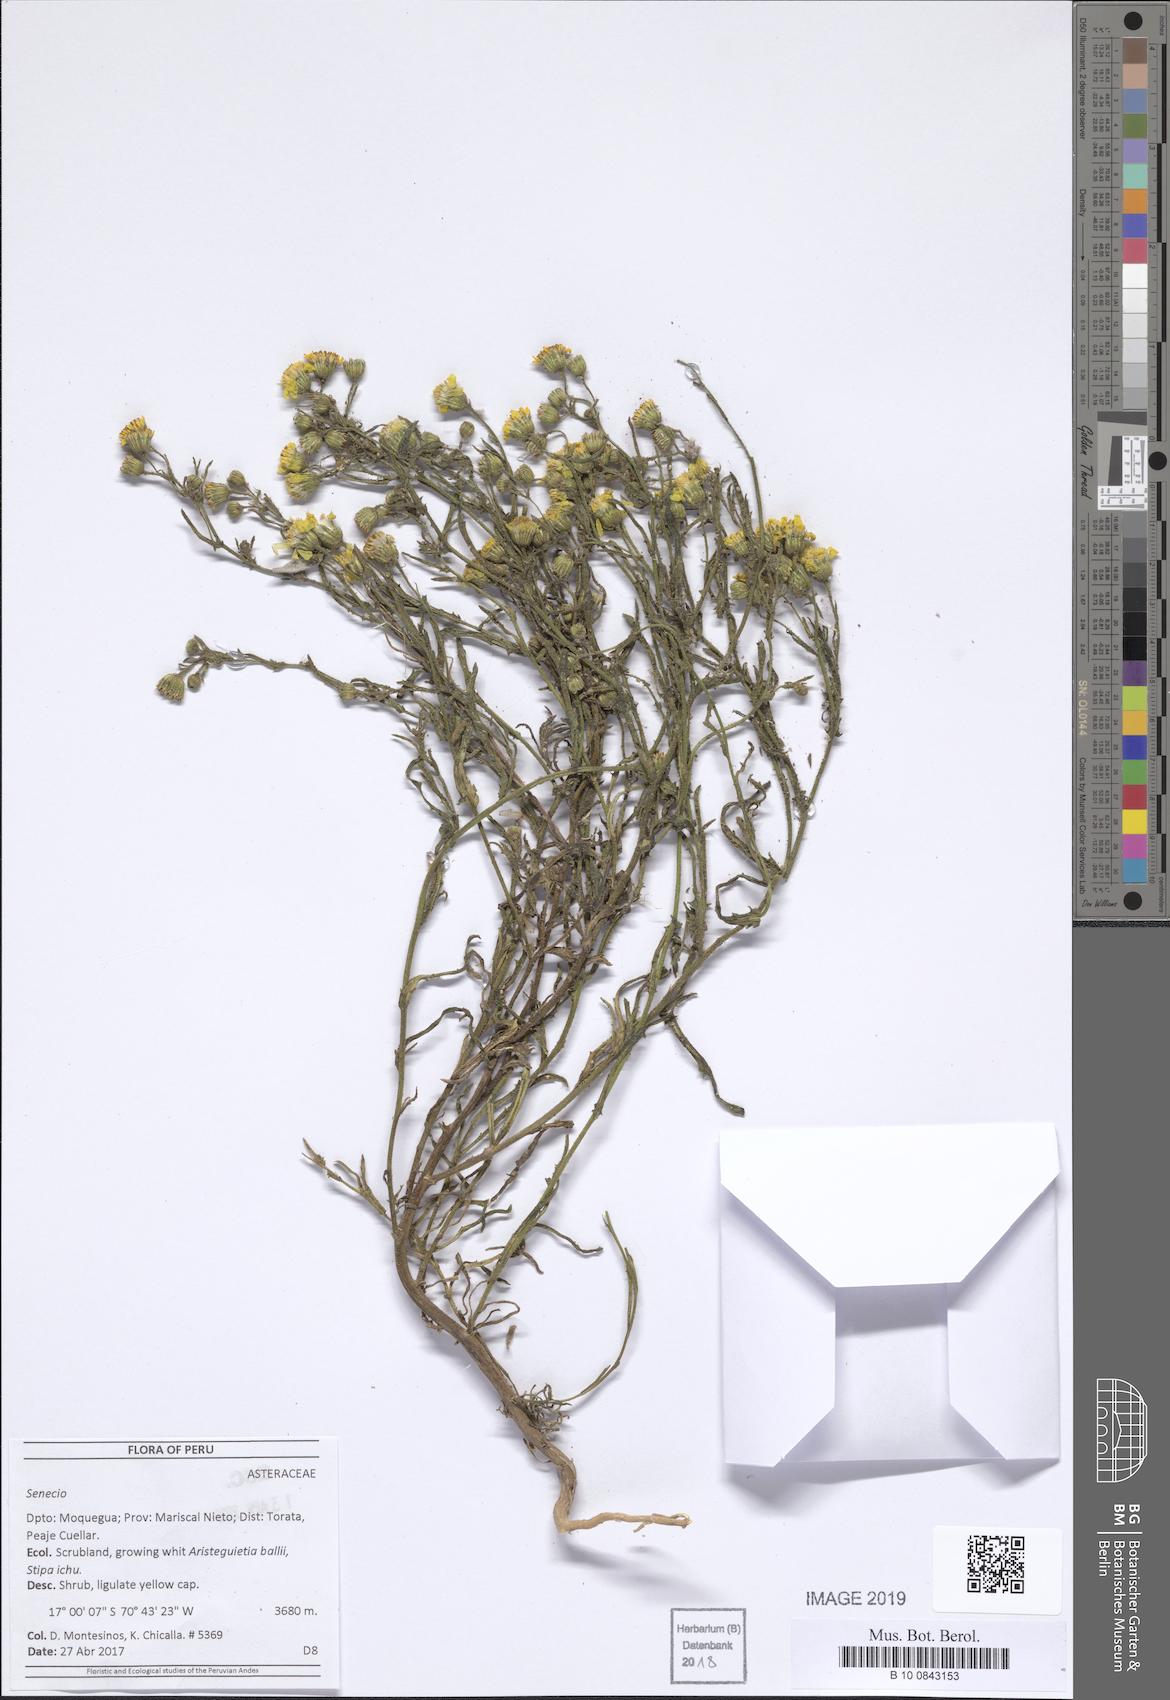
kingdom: Plantae
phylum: Tracheophyta
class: Magnoliopsida
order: Asterales
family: Asteraceae
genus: Senecio
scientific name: Senecio
